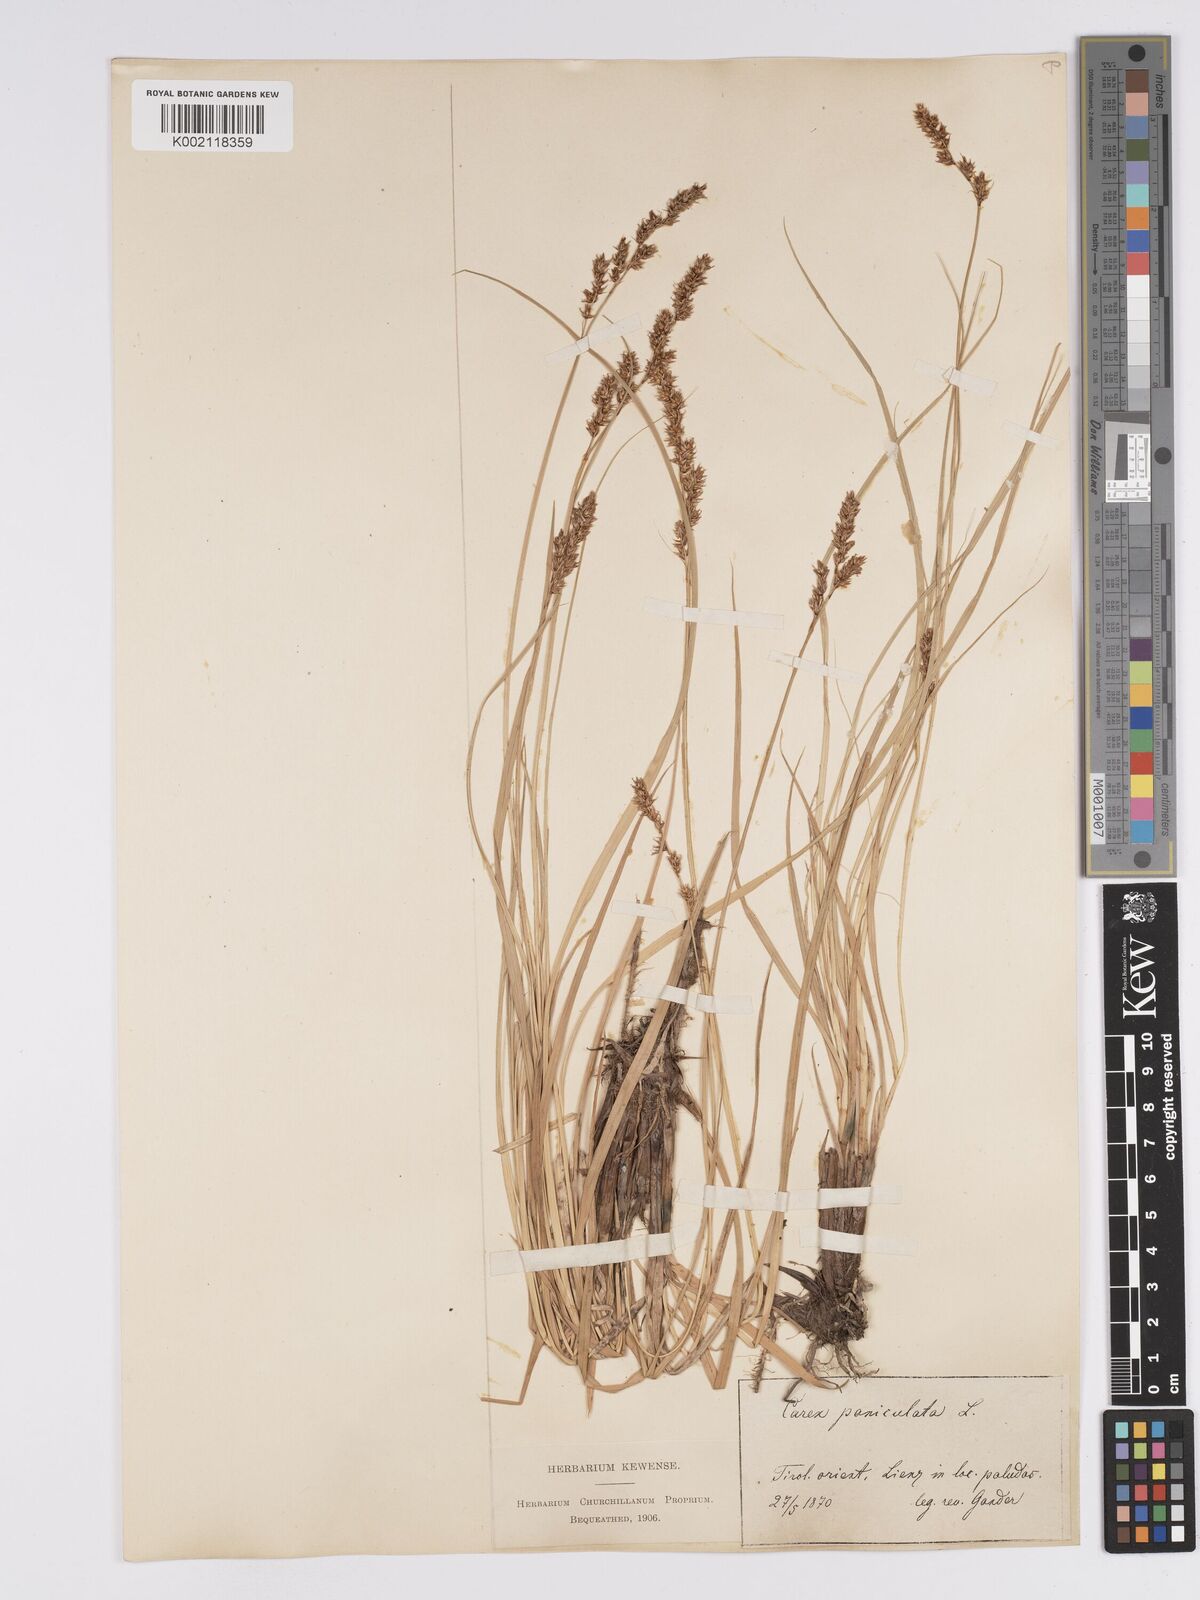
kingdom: Plantae
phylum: Tracheophyta
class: Liliopsida
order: Poales
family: Cyperaceae
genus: Carex
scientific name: Carex paniculata
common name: Greater tussock-sedge
